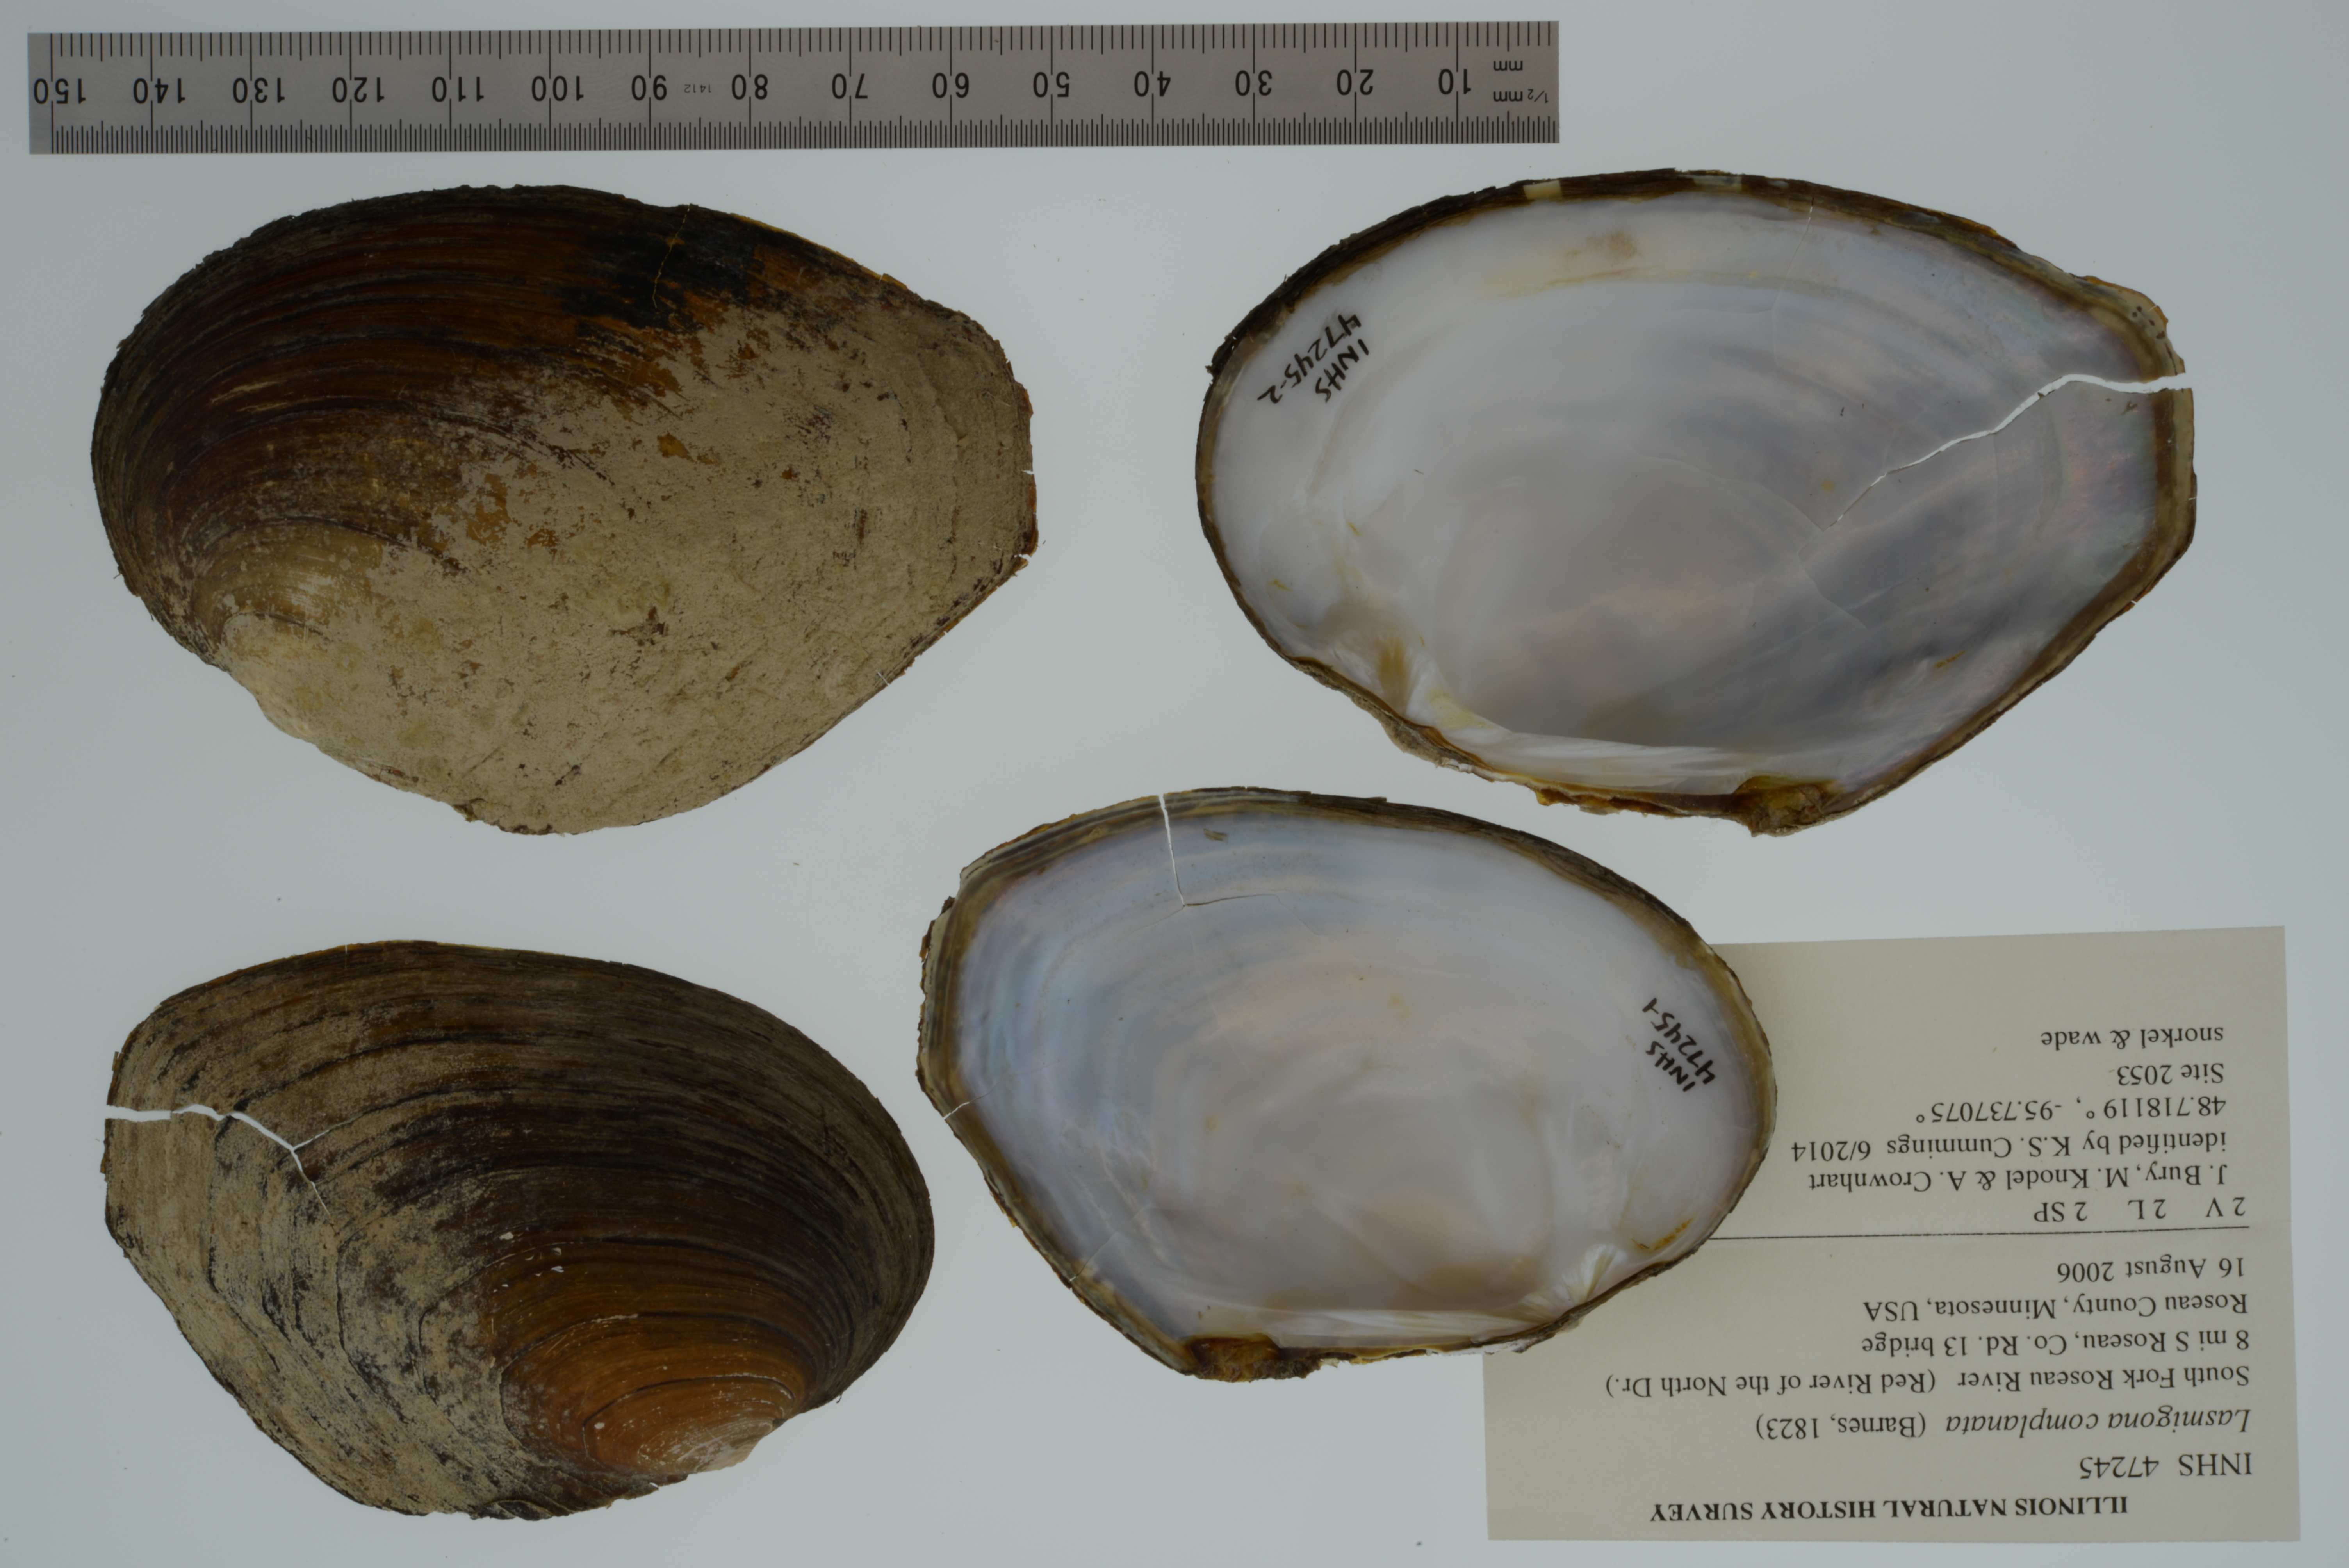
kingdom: Animalia
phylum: Mollusca
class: Bivalvia
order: Unionida
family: Unionidae
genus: Lasmigona
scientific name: Lasmigona complanata
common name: White heelsplitter
